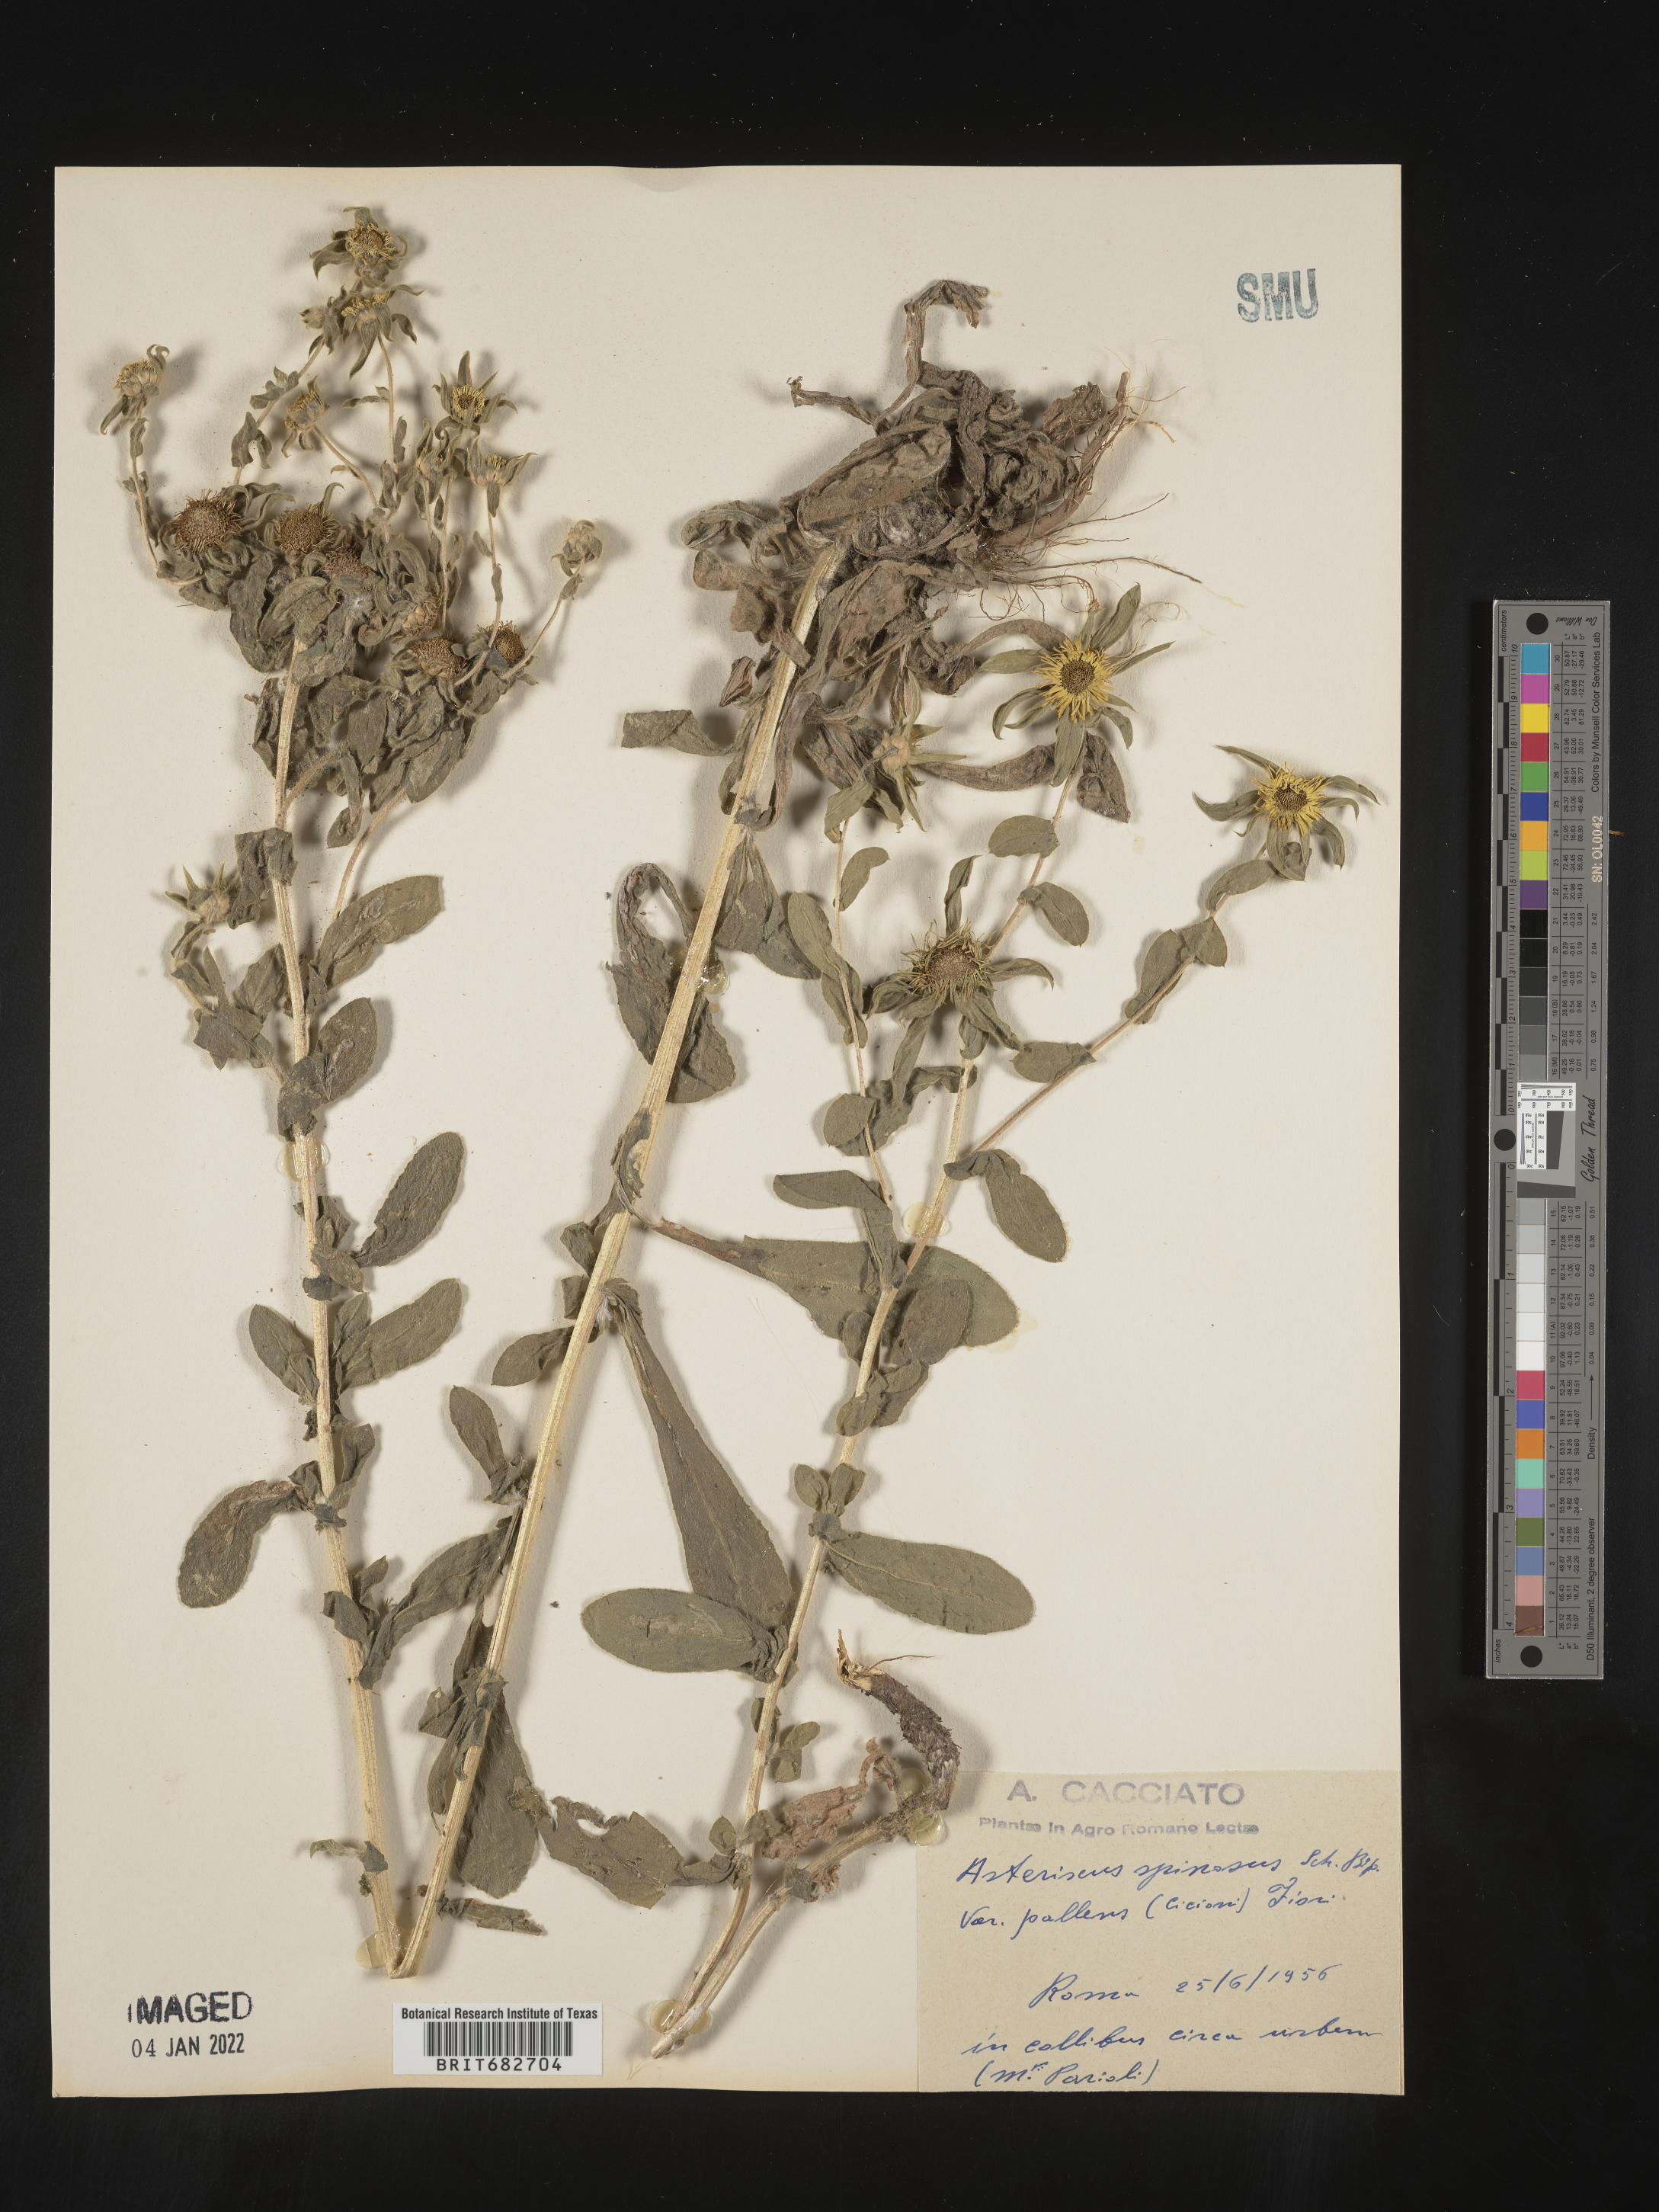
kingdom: Plantae
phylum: Tracheophyta
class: Magnoliopsida
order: Asterales
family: Asteraceae
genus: Asteriscus
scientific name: Asteriscus
